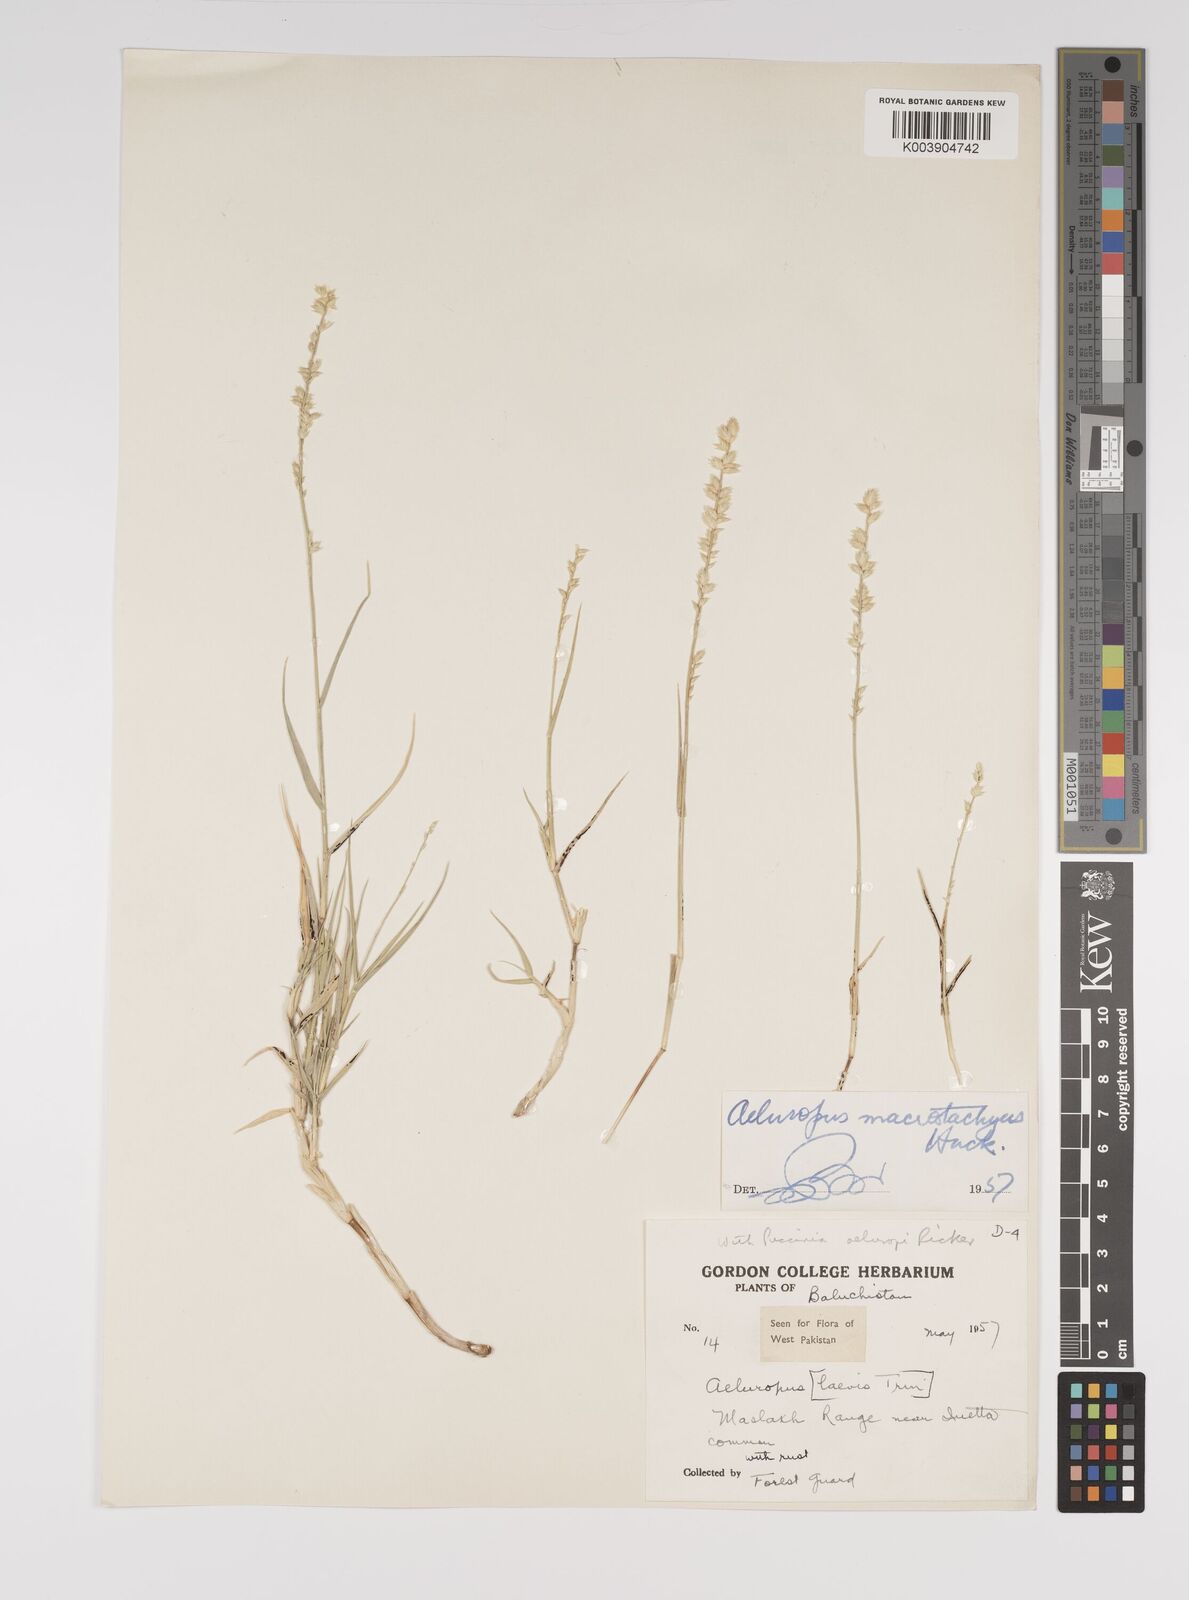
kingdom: Plantae
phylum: Tracheophyta
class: Liliopsida
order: Poales
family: Poaceae
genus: Aeluropus
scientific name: Aeluropus macrostachyus
